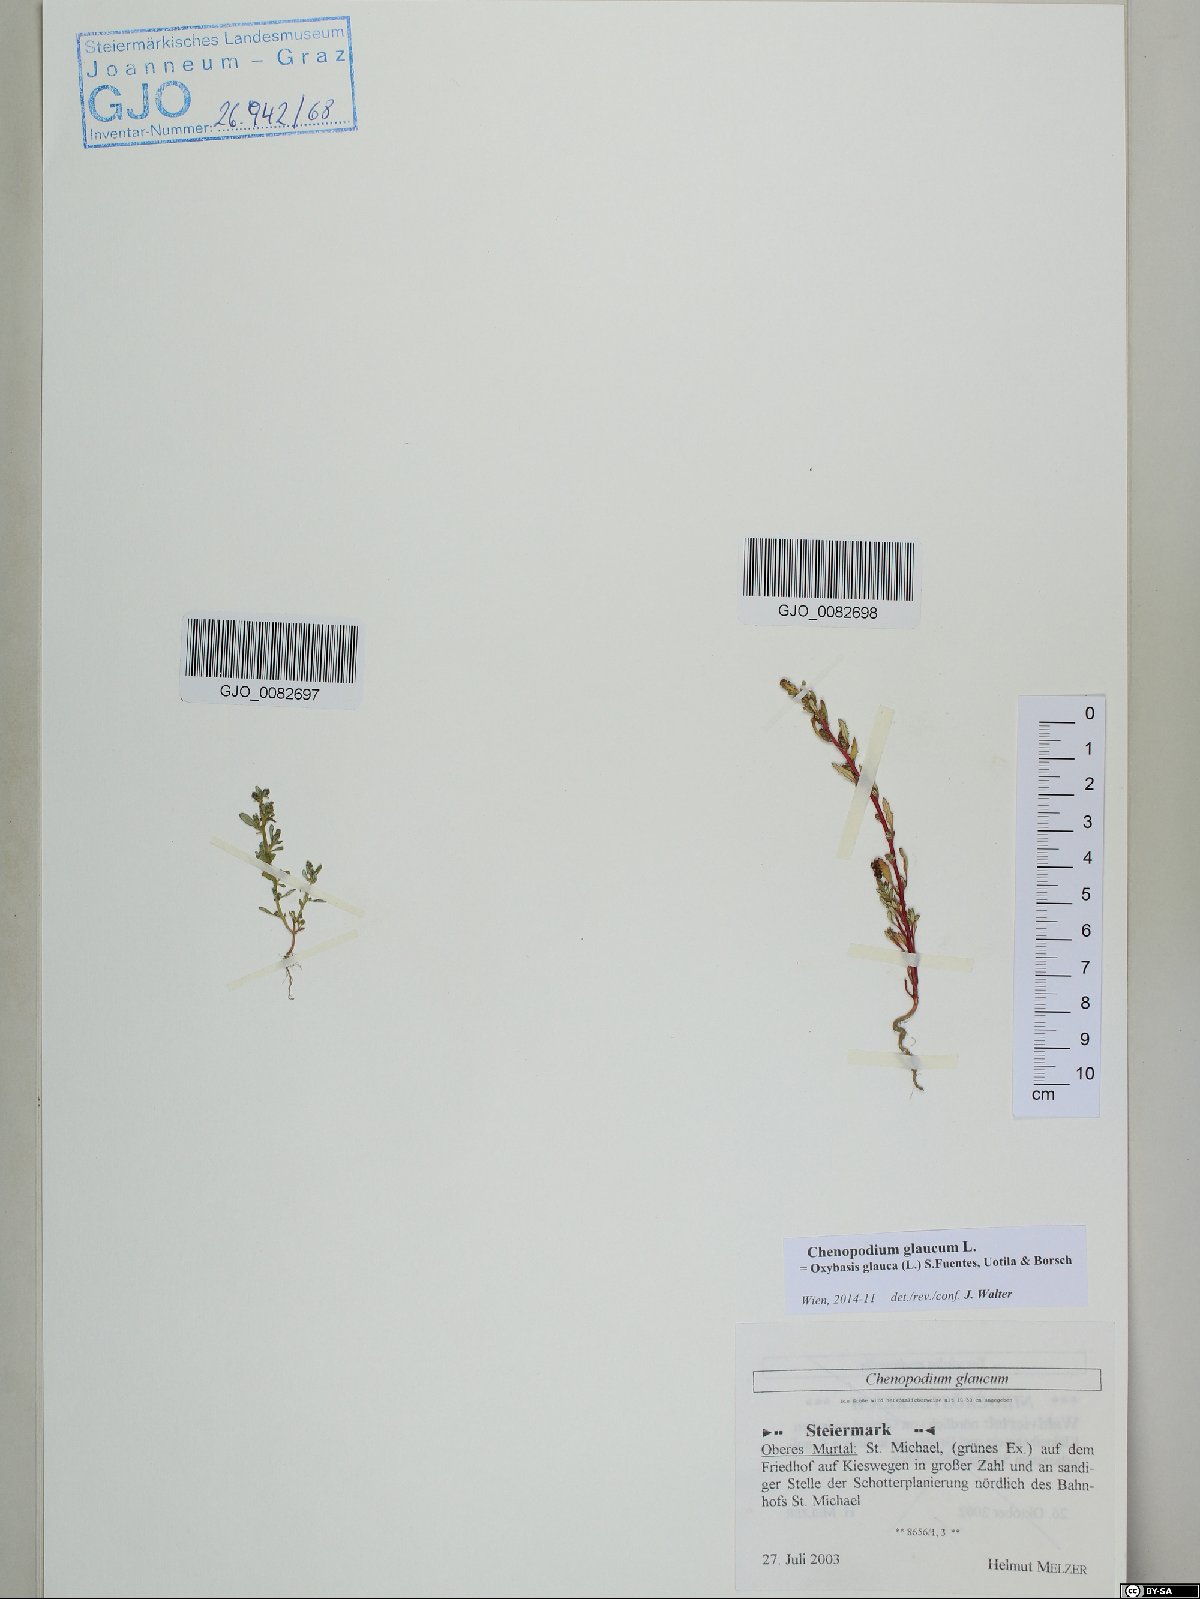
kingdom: Plantae
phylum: Tracheophyta
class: Magnoliopsida
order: Caryophyllales
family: Amaranthaceae
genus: Oxybasis
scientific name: Oxybasis glauca
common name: Glaucous goosefoot
